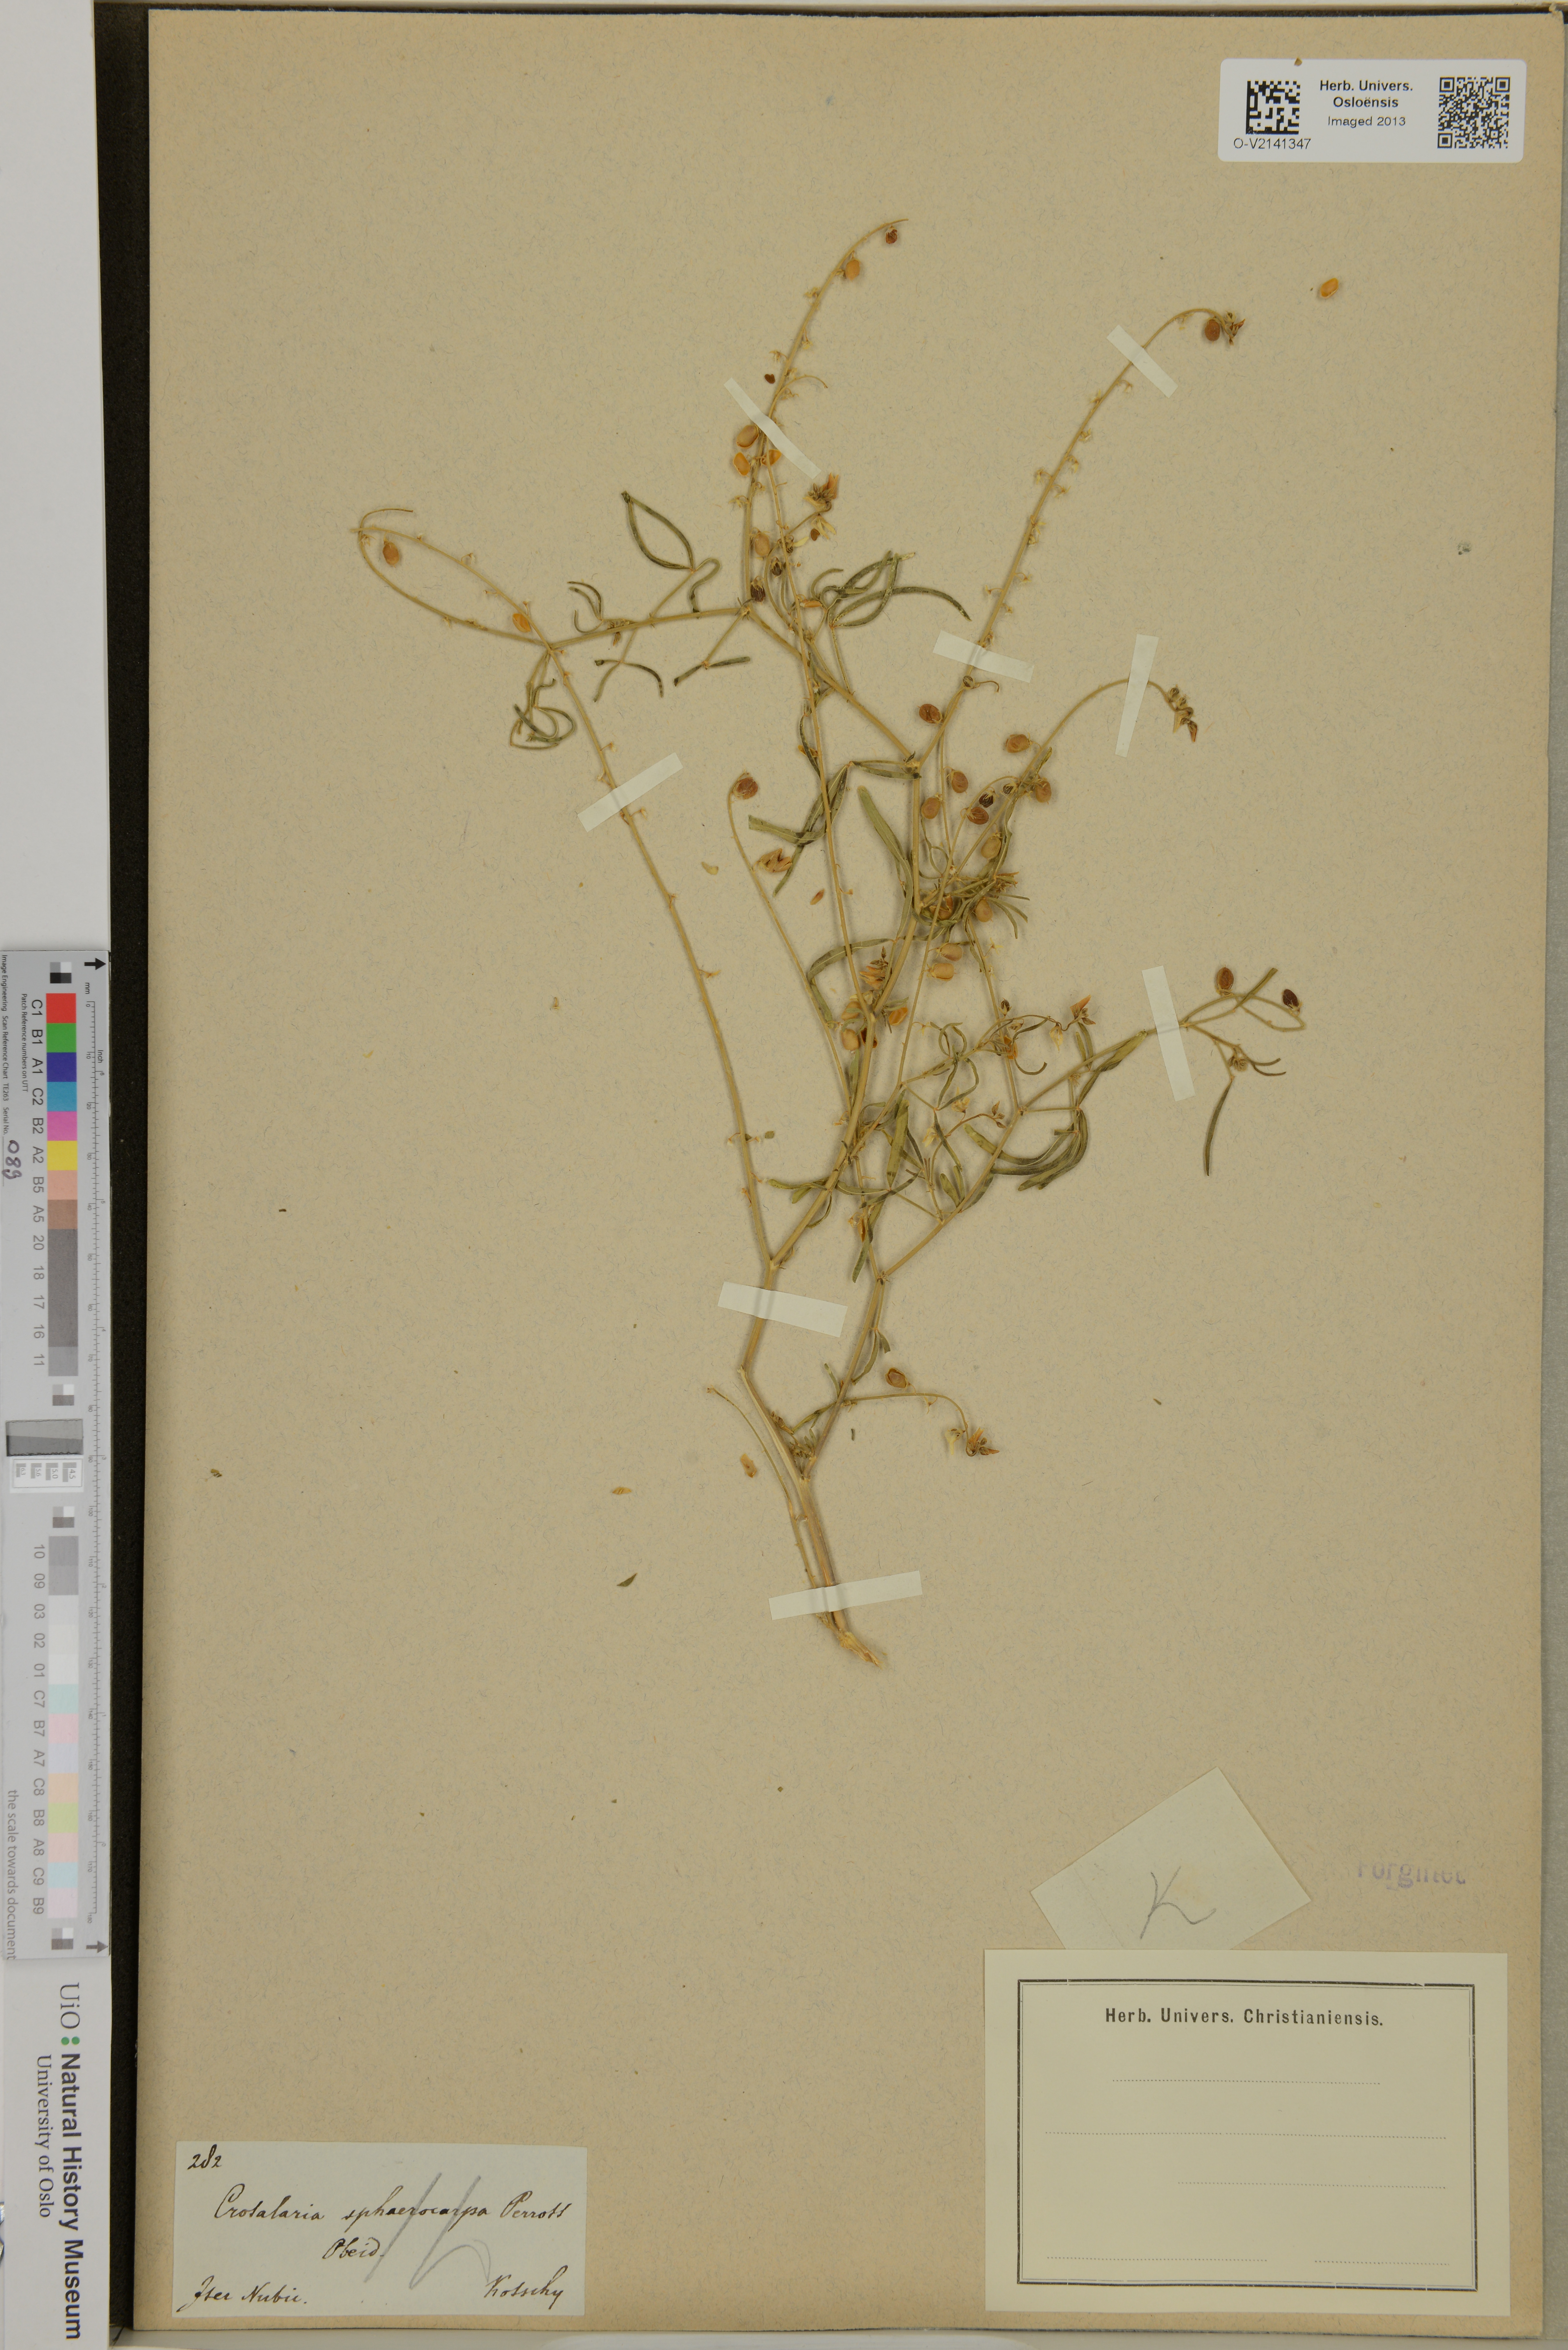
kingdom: Plantae
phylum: Tracheophyta
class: Magnoliopsida
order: Fabales
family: Fabaceae
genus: Crotalaria
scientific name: Crotalaria sphaerocarpa
